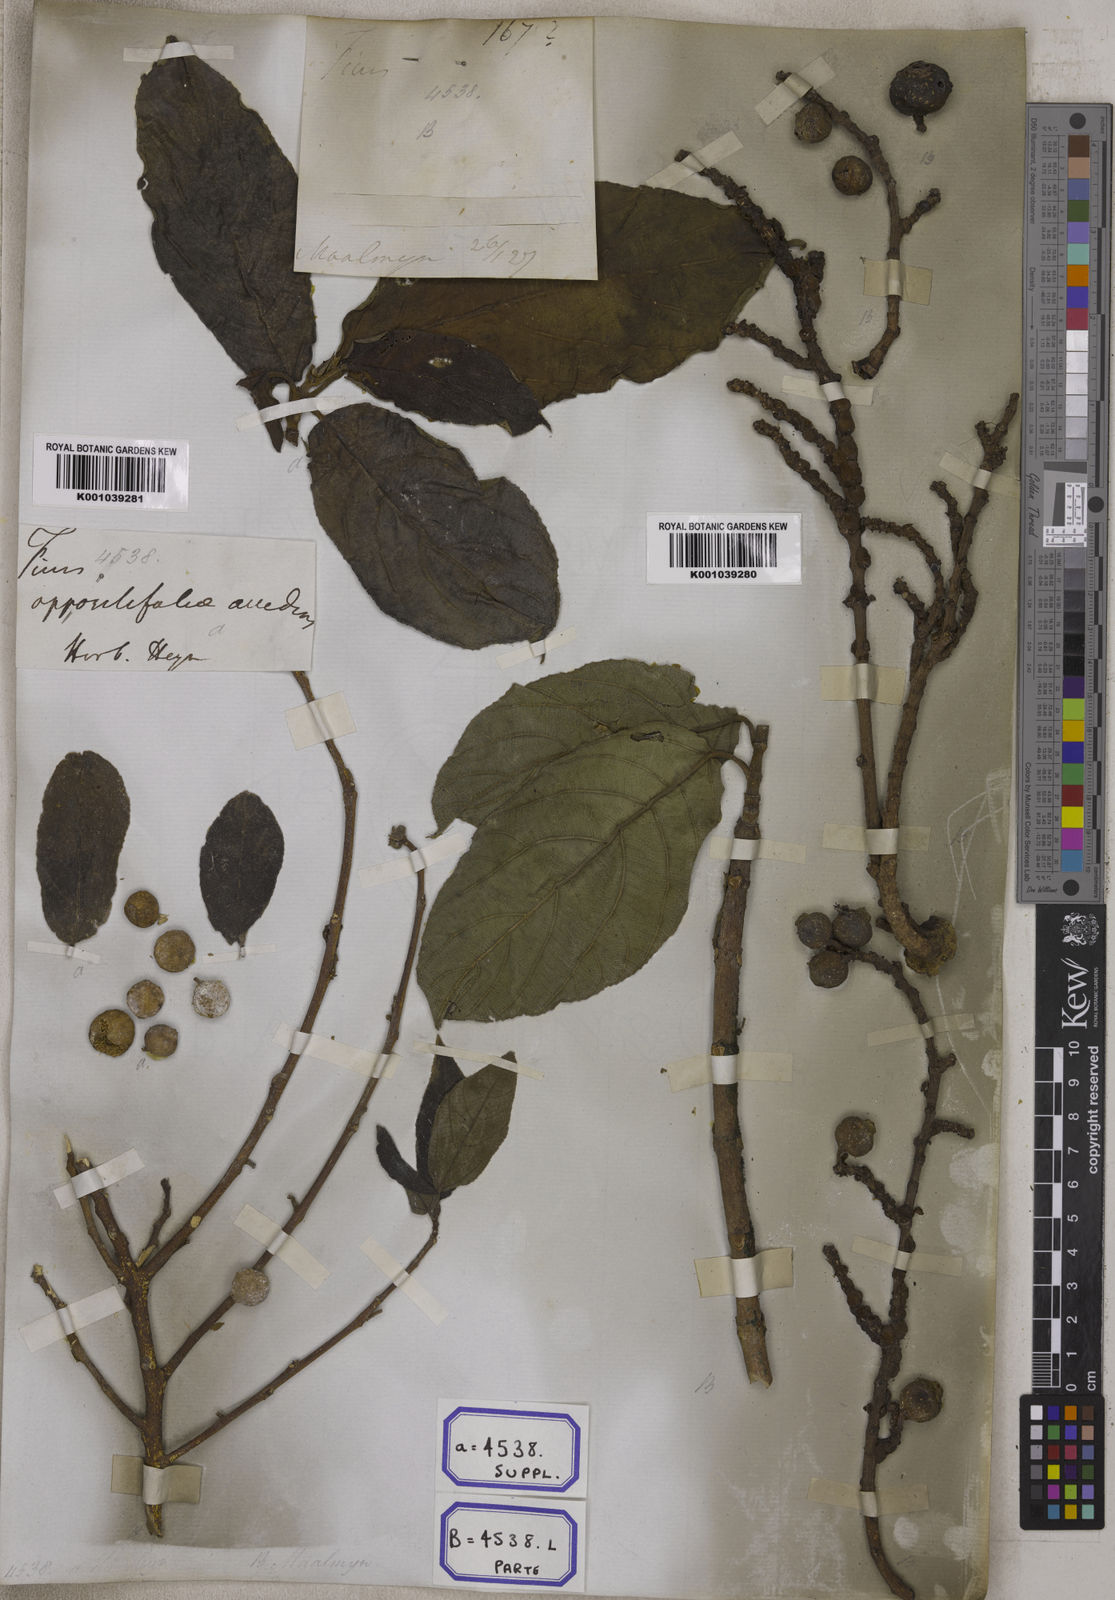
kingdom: Plantae
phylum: Tracheophyta
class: Magnoliopsida
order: Rosales
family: Moraceae
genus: Ficus
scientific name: Ficus hispida
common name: Hairy fig
